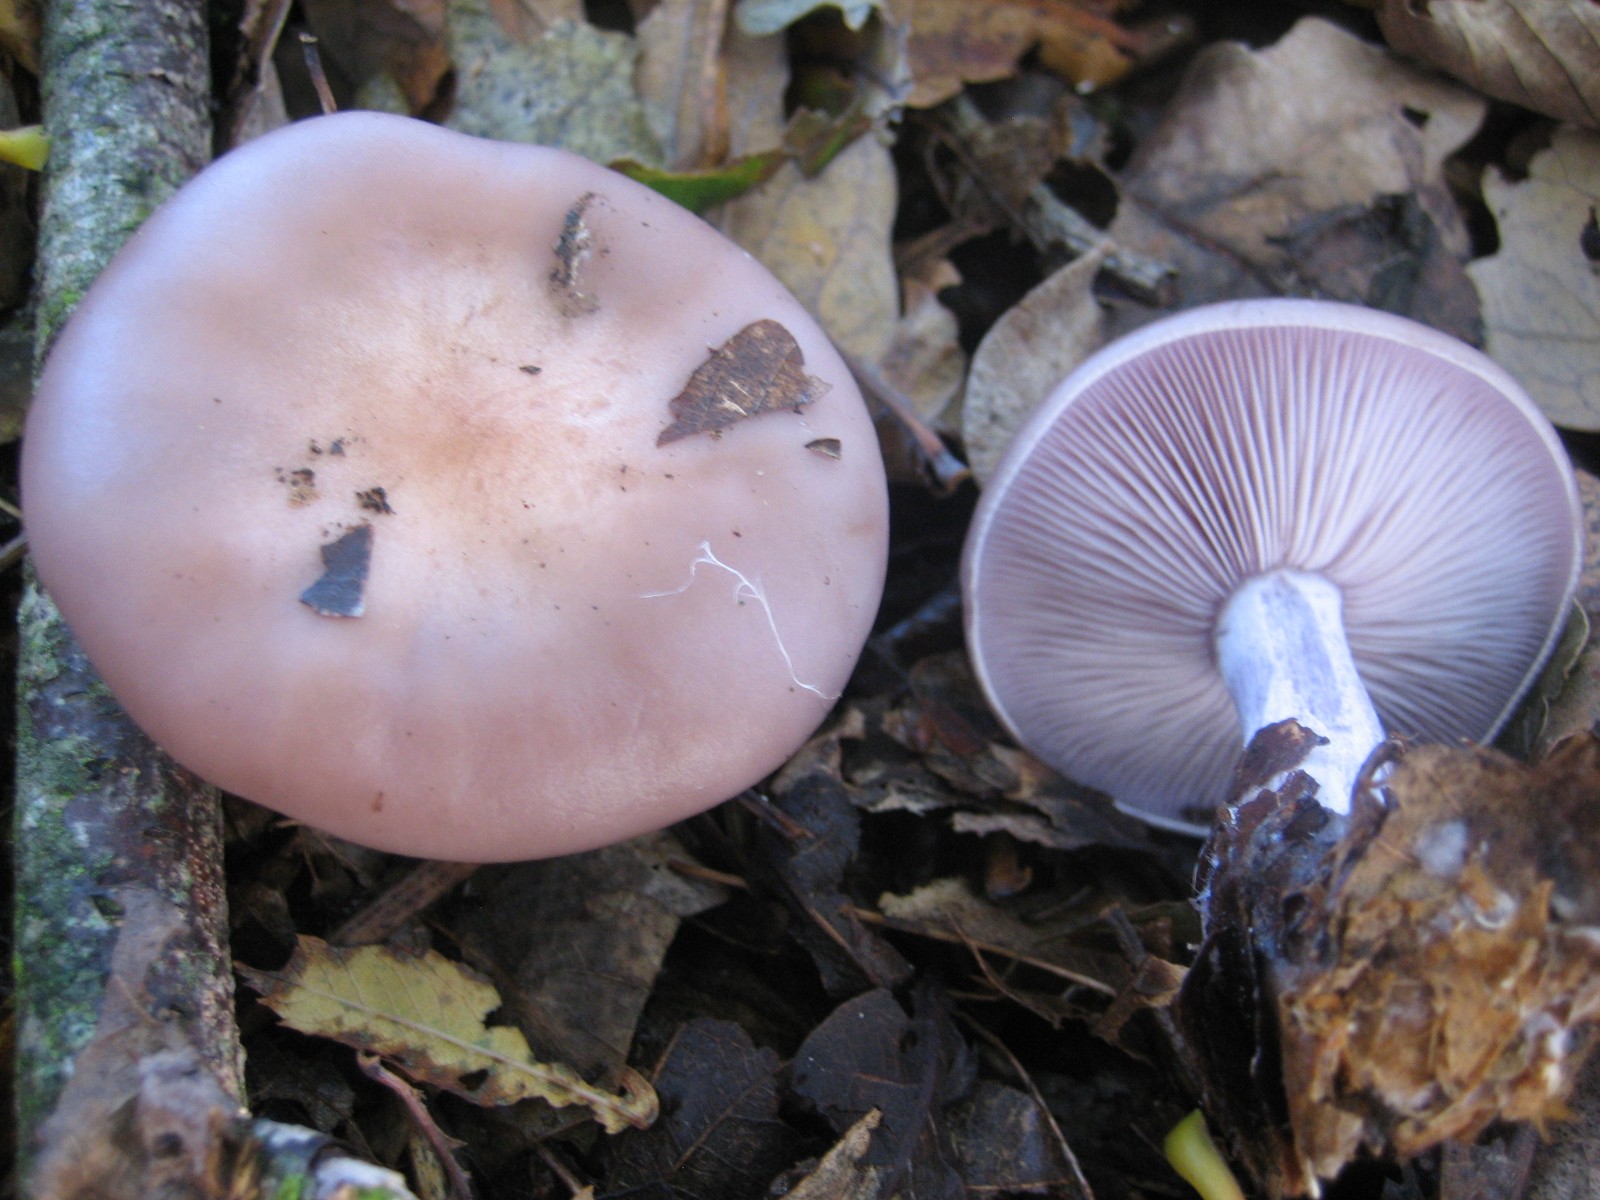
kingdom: Fungi
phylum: Basidiomycota
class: Agaricomycetes
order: Agaricales
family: Tricholomataceae
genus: Lepista
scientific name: Lepista nuda
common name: violet hekseringshat
